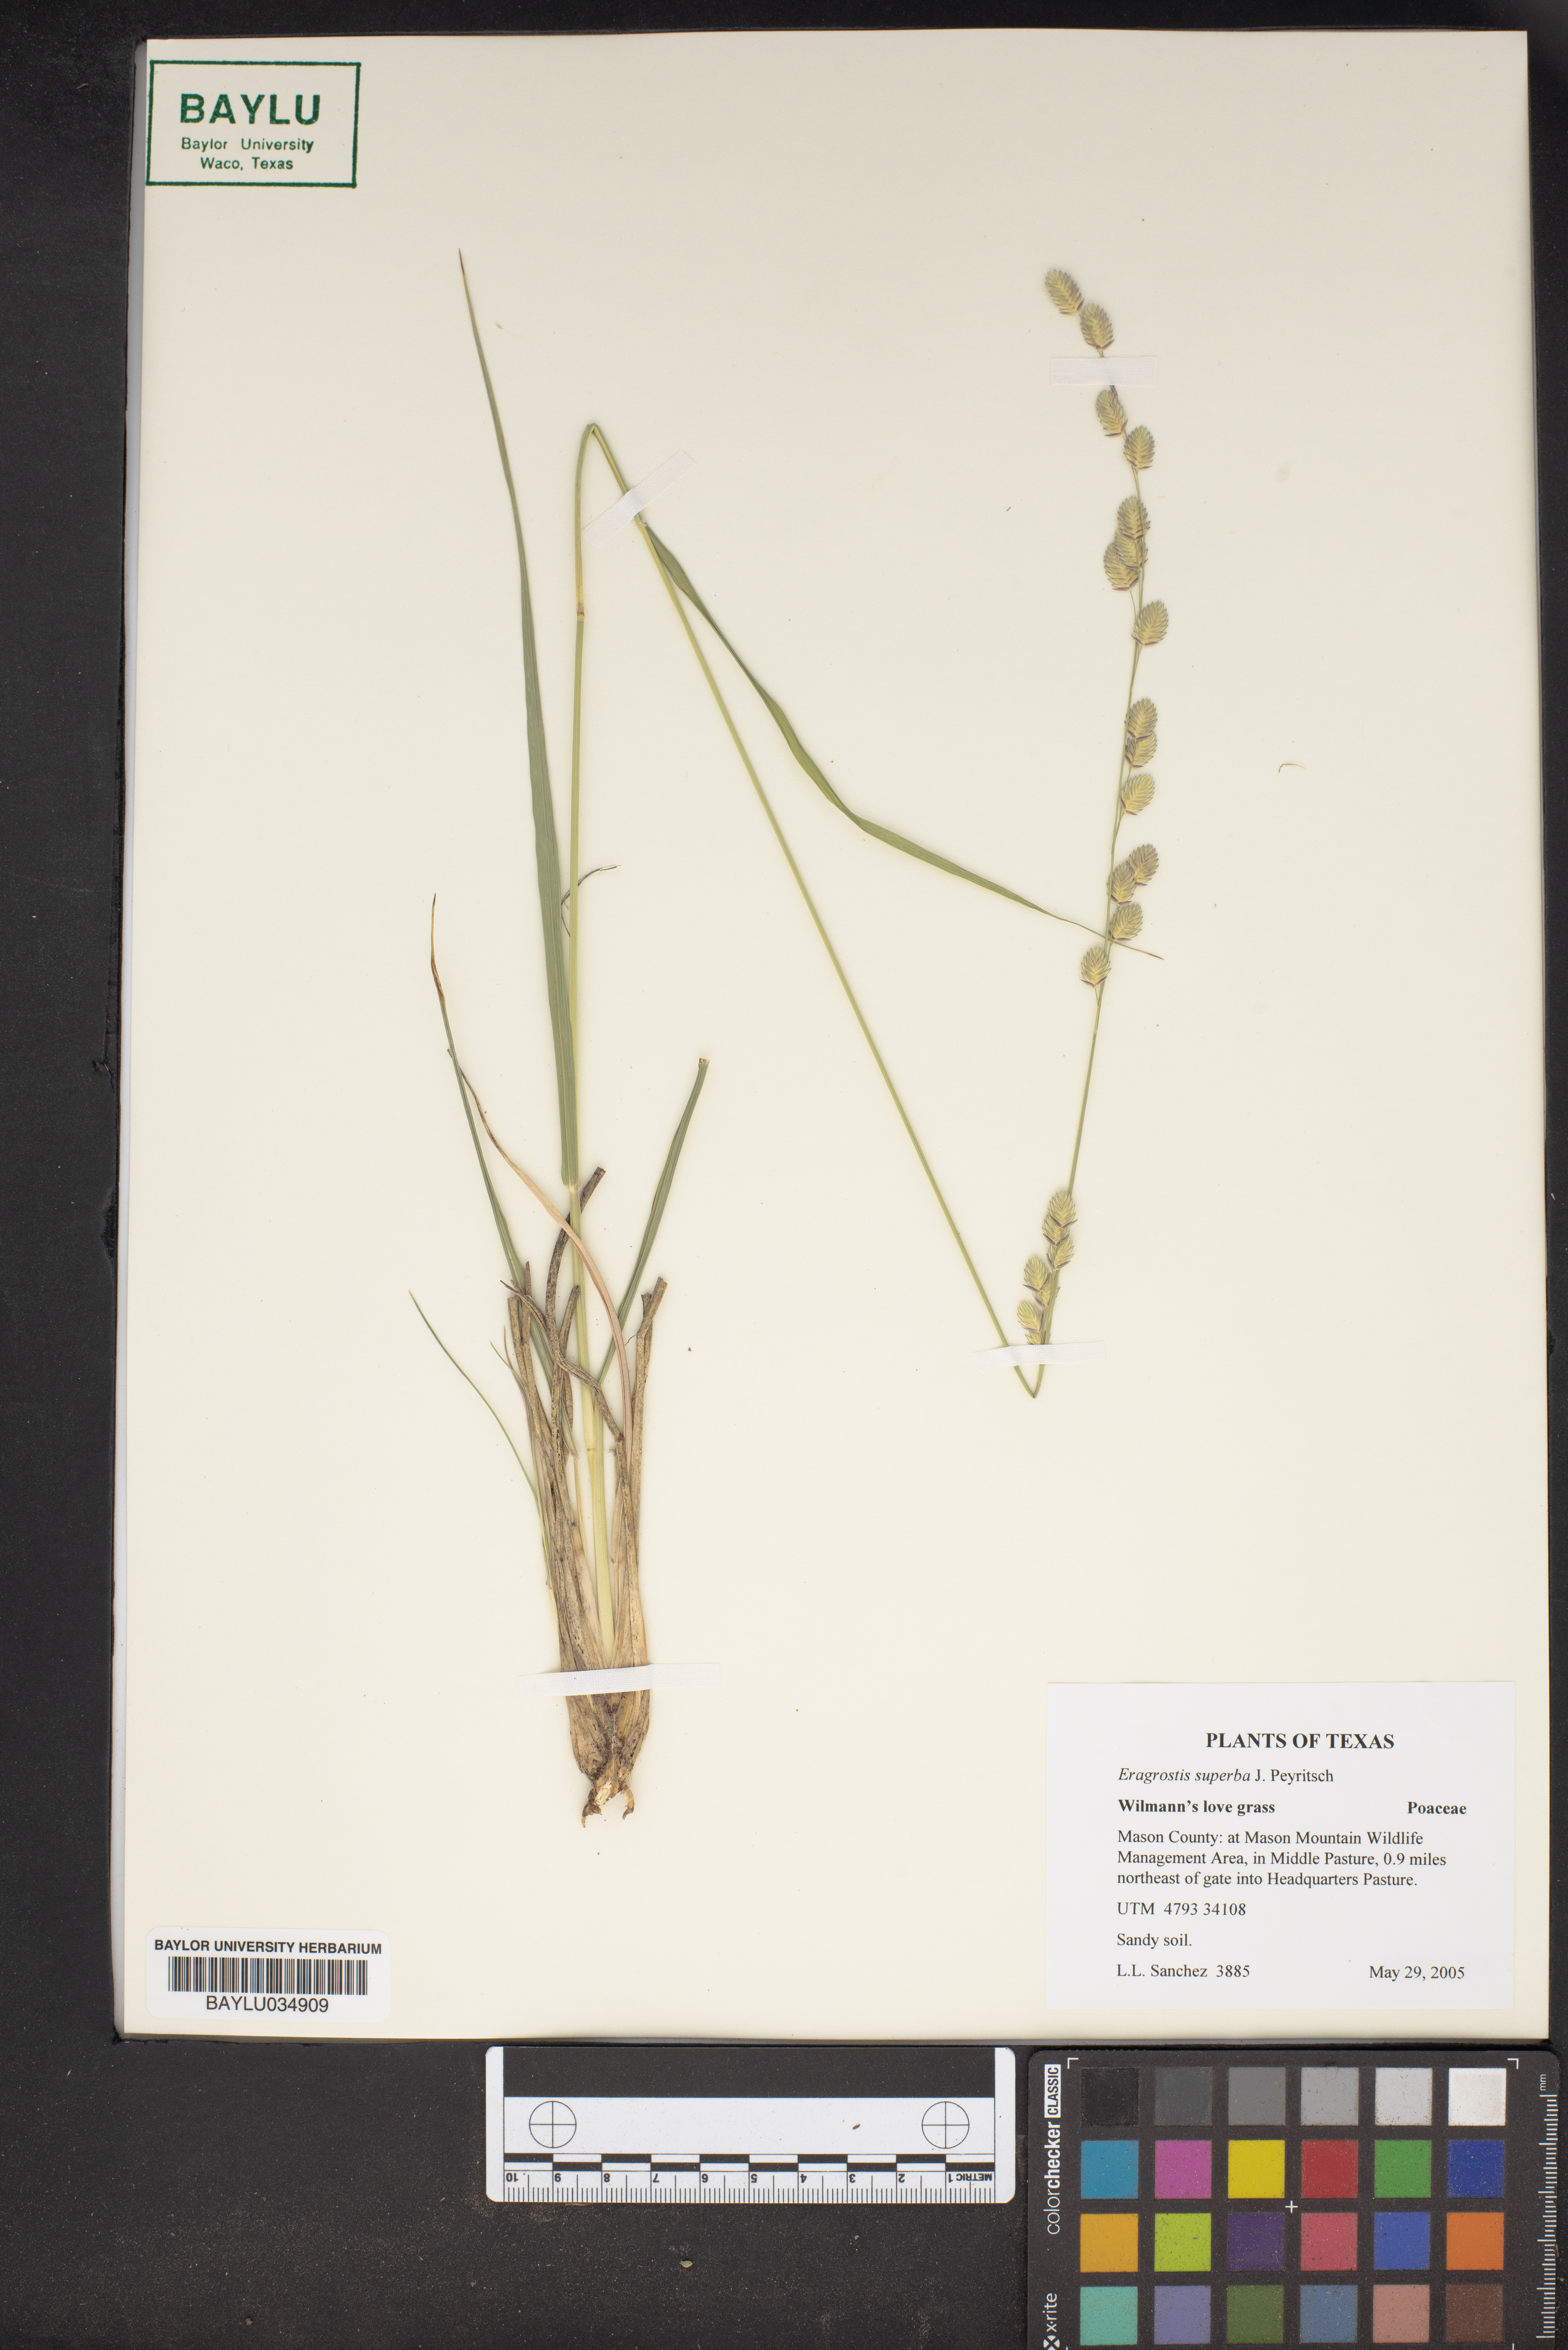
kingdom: Plantae
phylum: Tracheophyta
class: Liliopsida
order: Poales
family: Poaceae
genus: Eragrostis
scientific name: Eragrostis superba
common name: Wilman lovegrass
